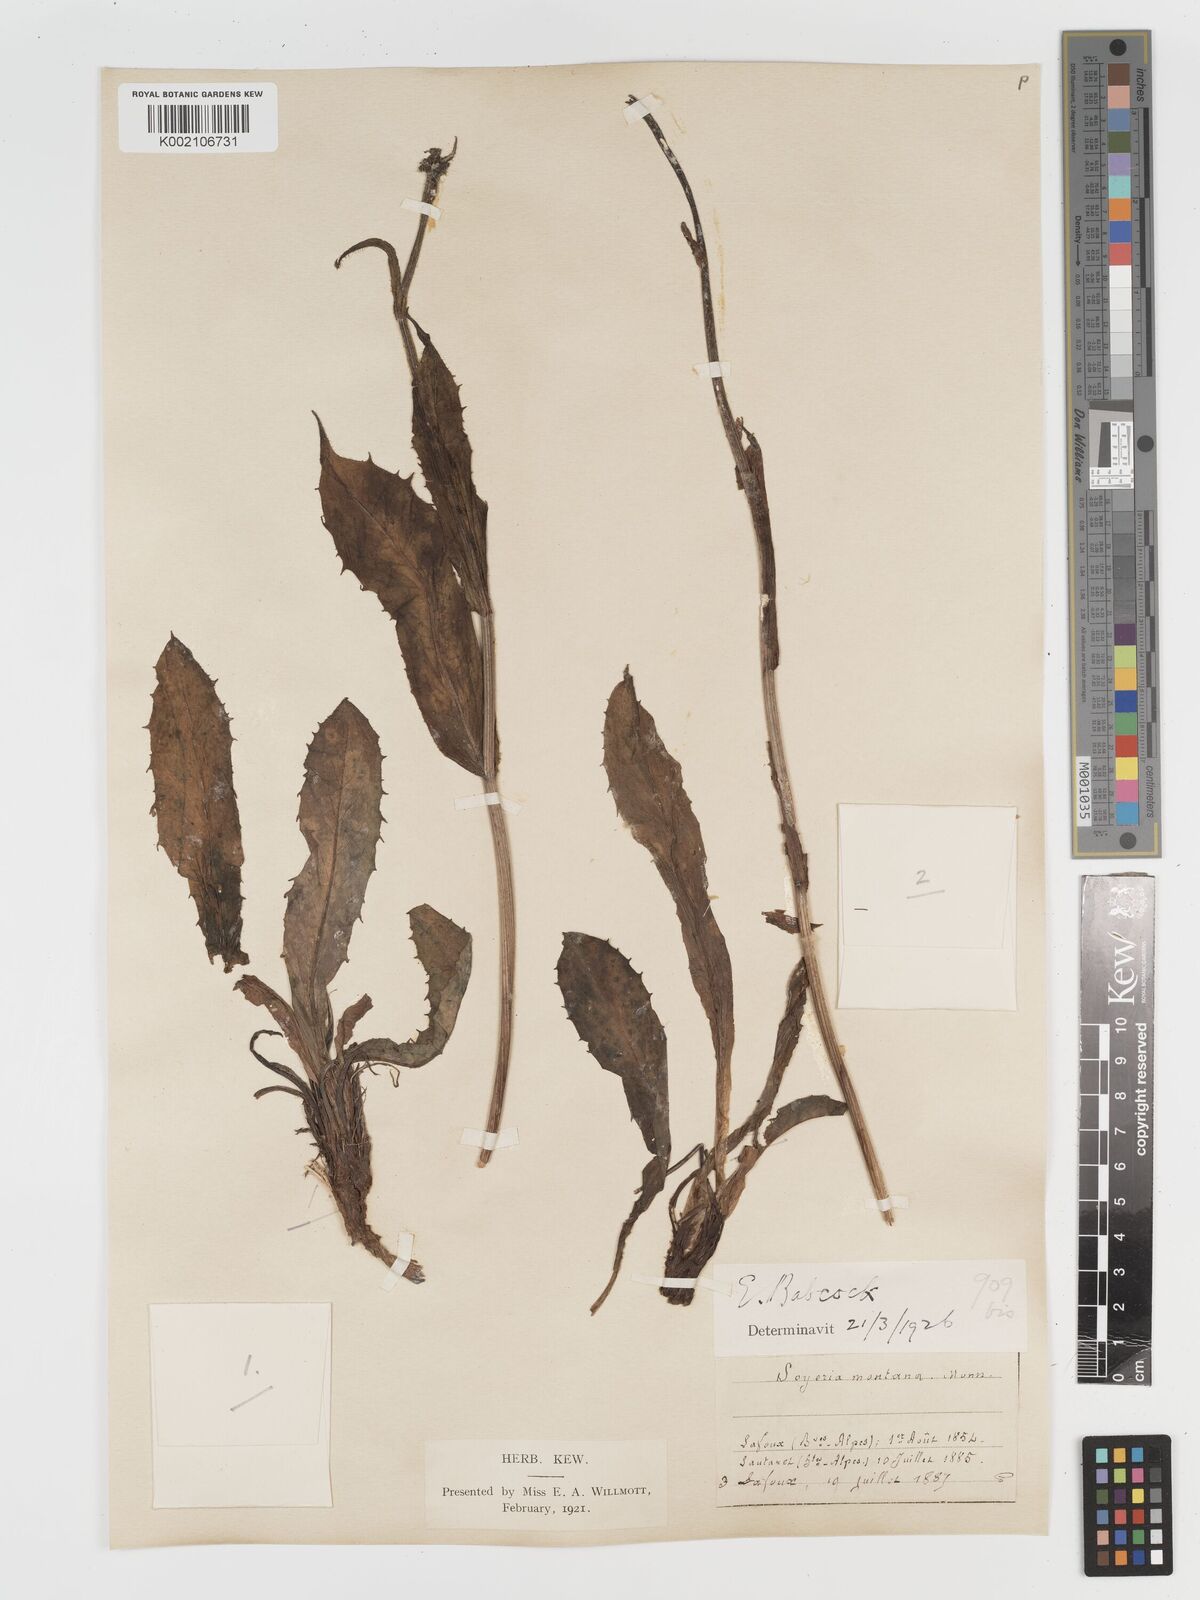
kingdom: Plantae
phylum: Tracheophyta
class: Magnoliopsida
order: Asterales
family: Asteraceae
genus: Crepis
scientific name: Crepis pontana
